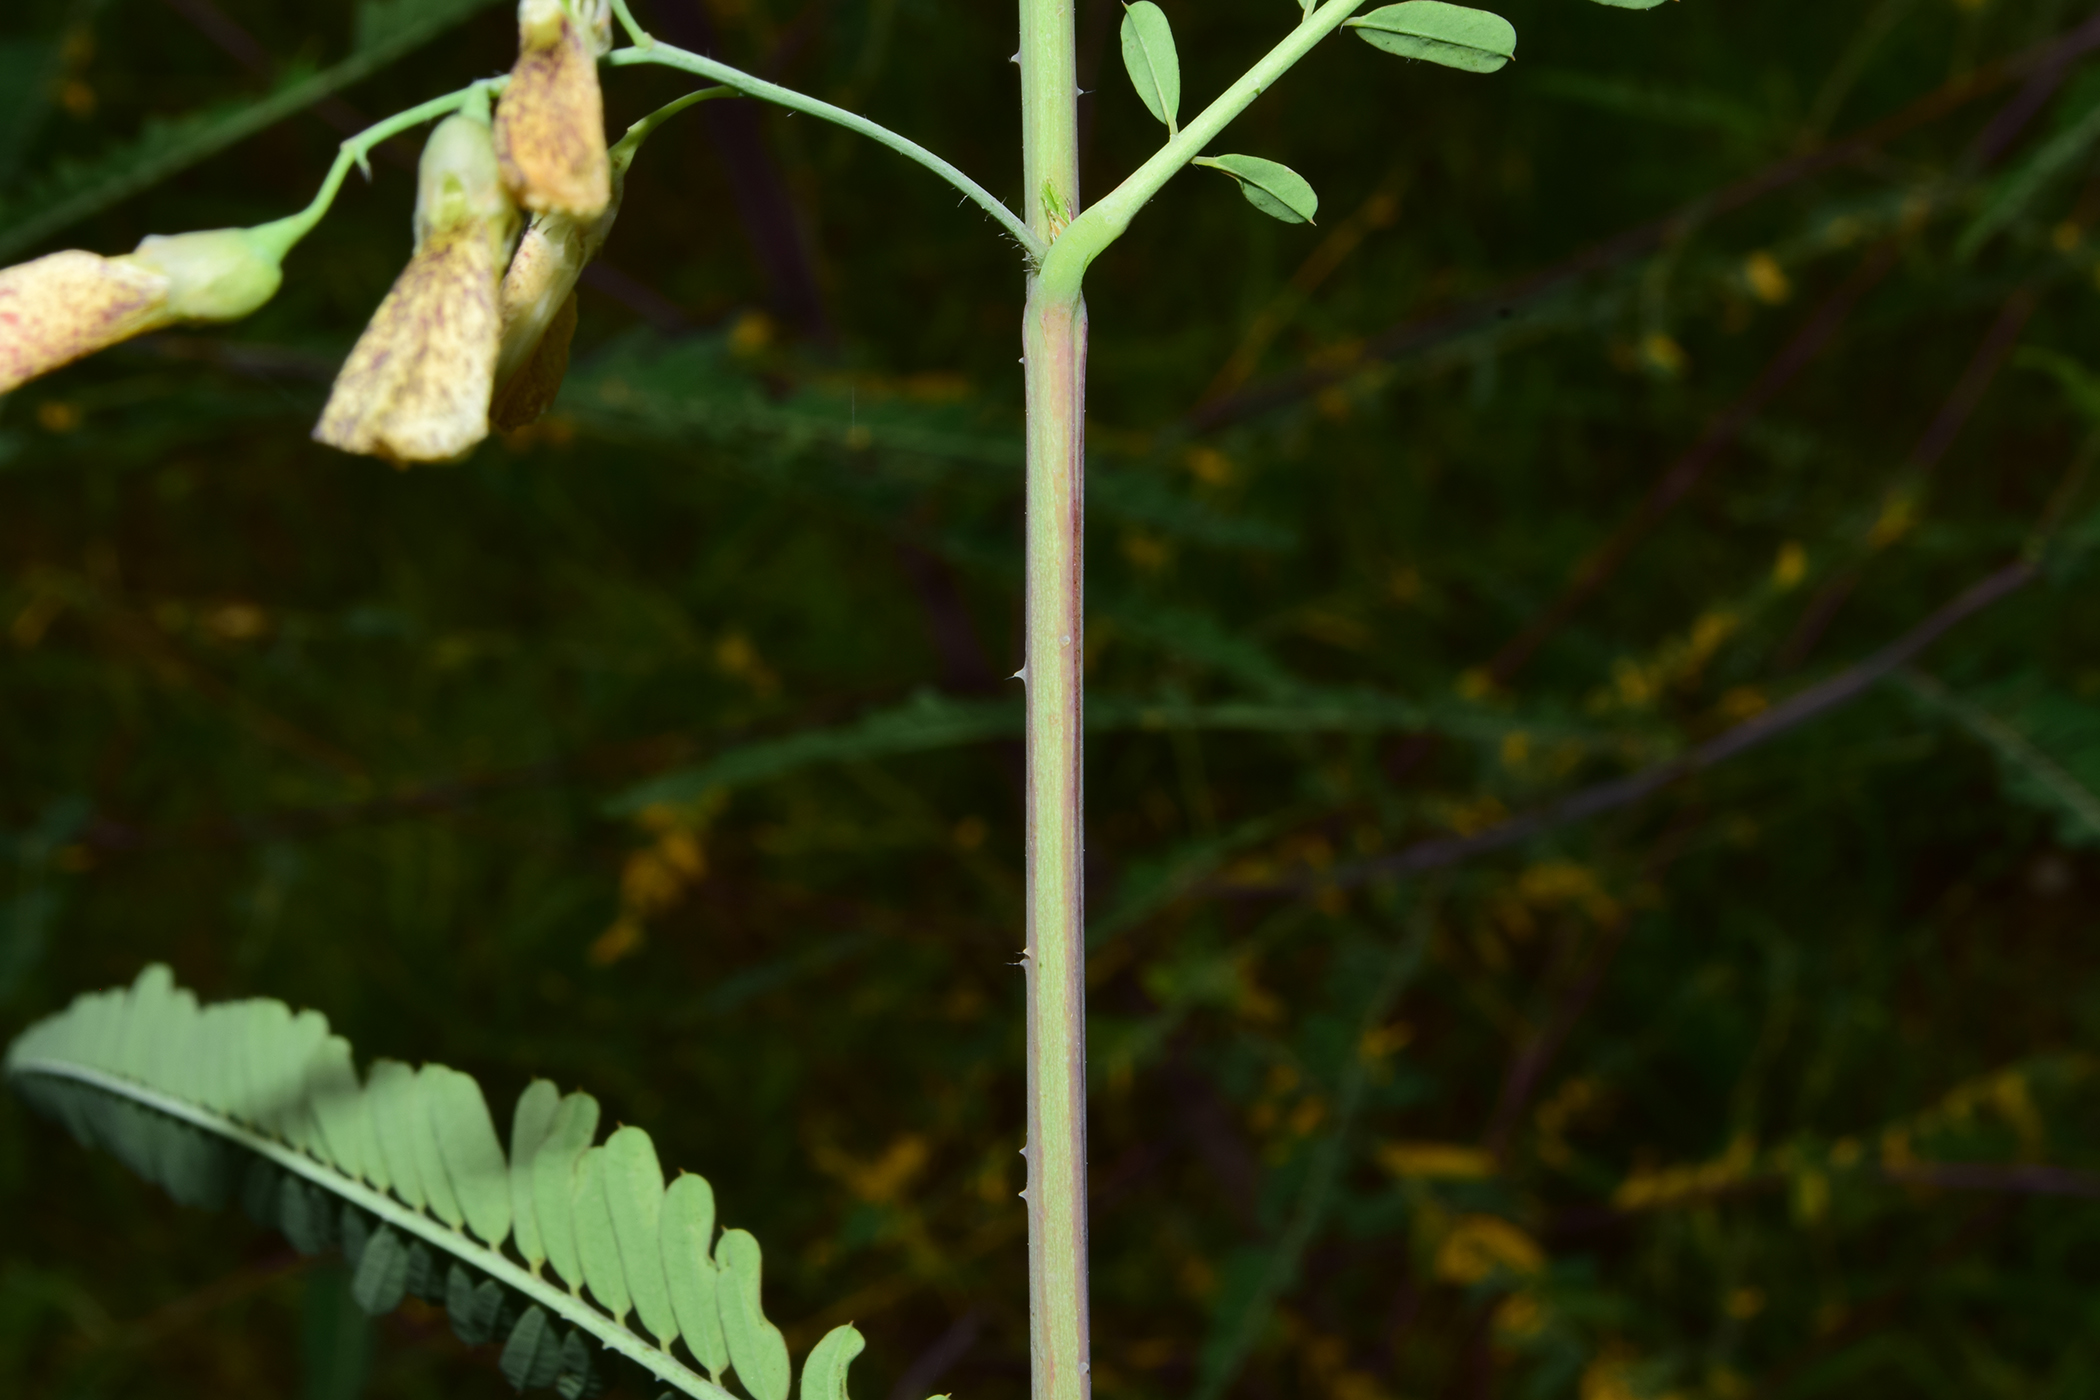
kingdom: Plantae
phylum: Tracheophyta
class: Magnoliopsida
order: Fabales
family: Fabaceae
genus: Sesbania
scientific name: Sesbania bispinosa
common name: Sesbania pea
